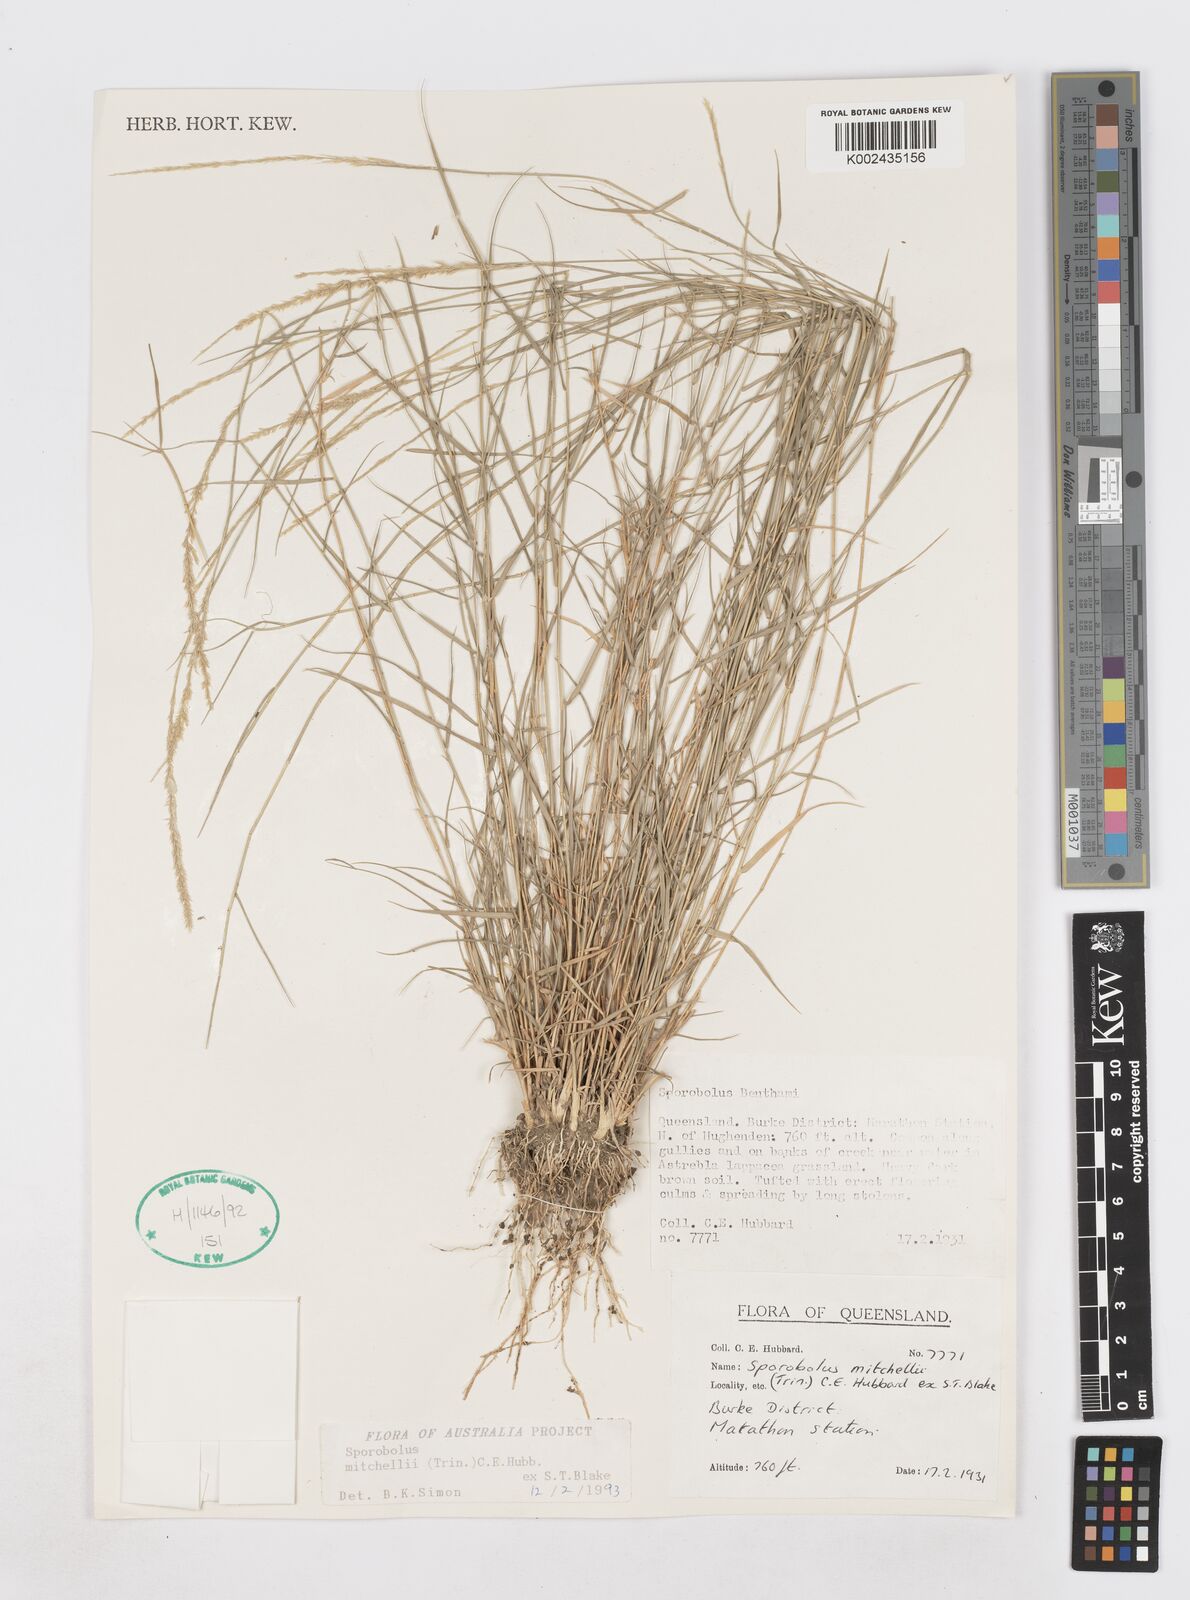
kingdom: Plantae
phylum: Tracheophyta
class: Liliopsida
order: Poales
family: Poaceae
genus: Sporobolus
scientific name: Sporobolus mitchellii
